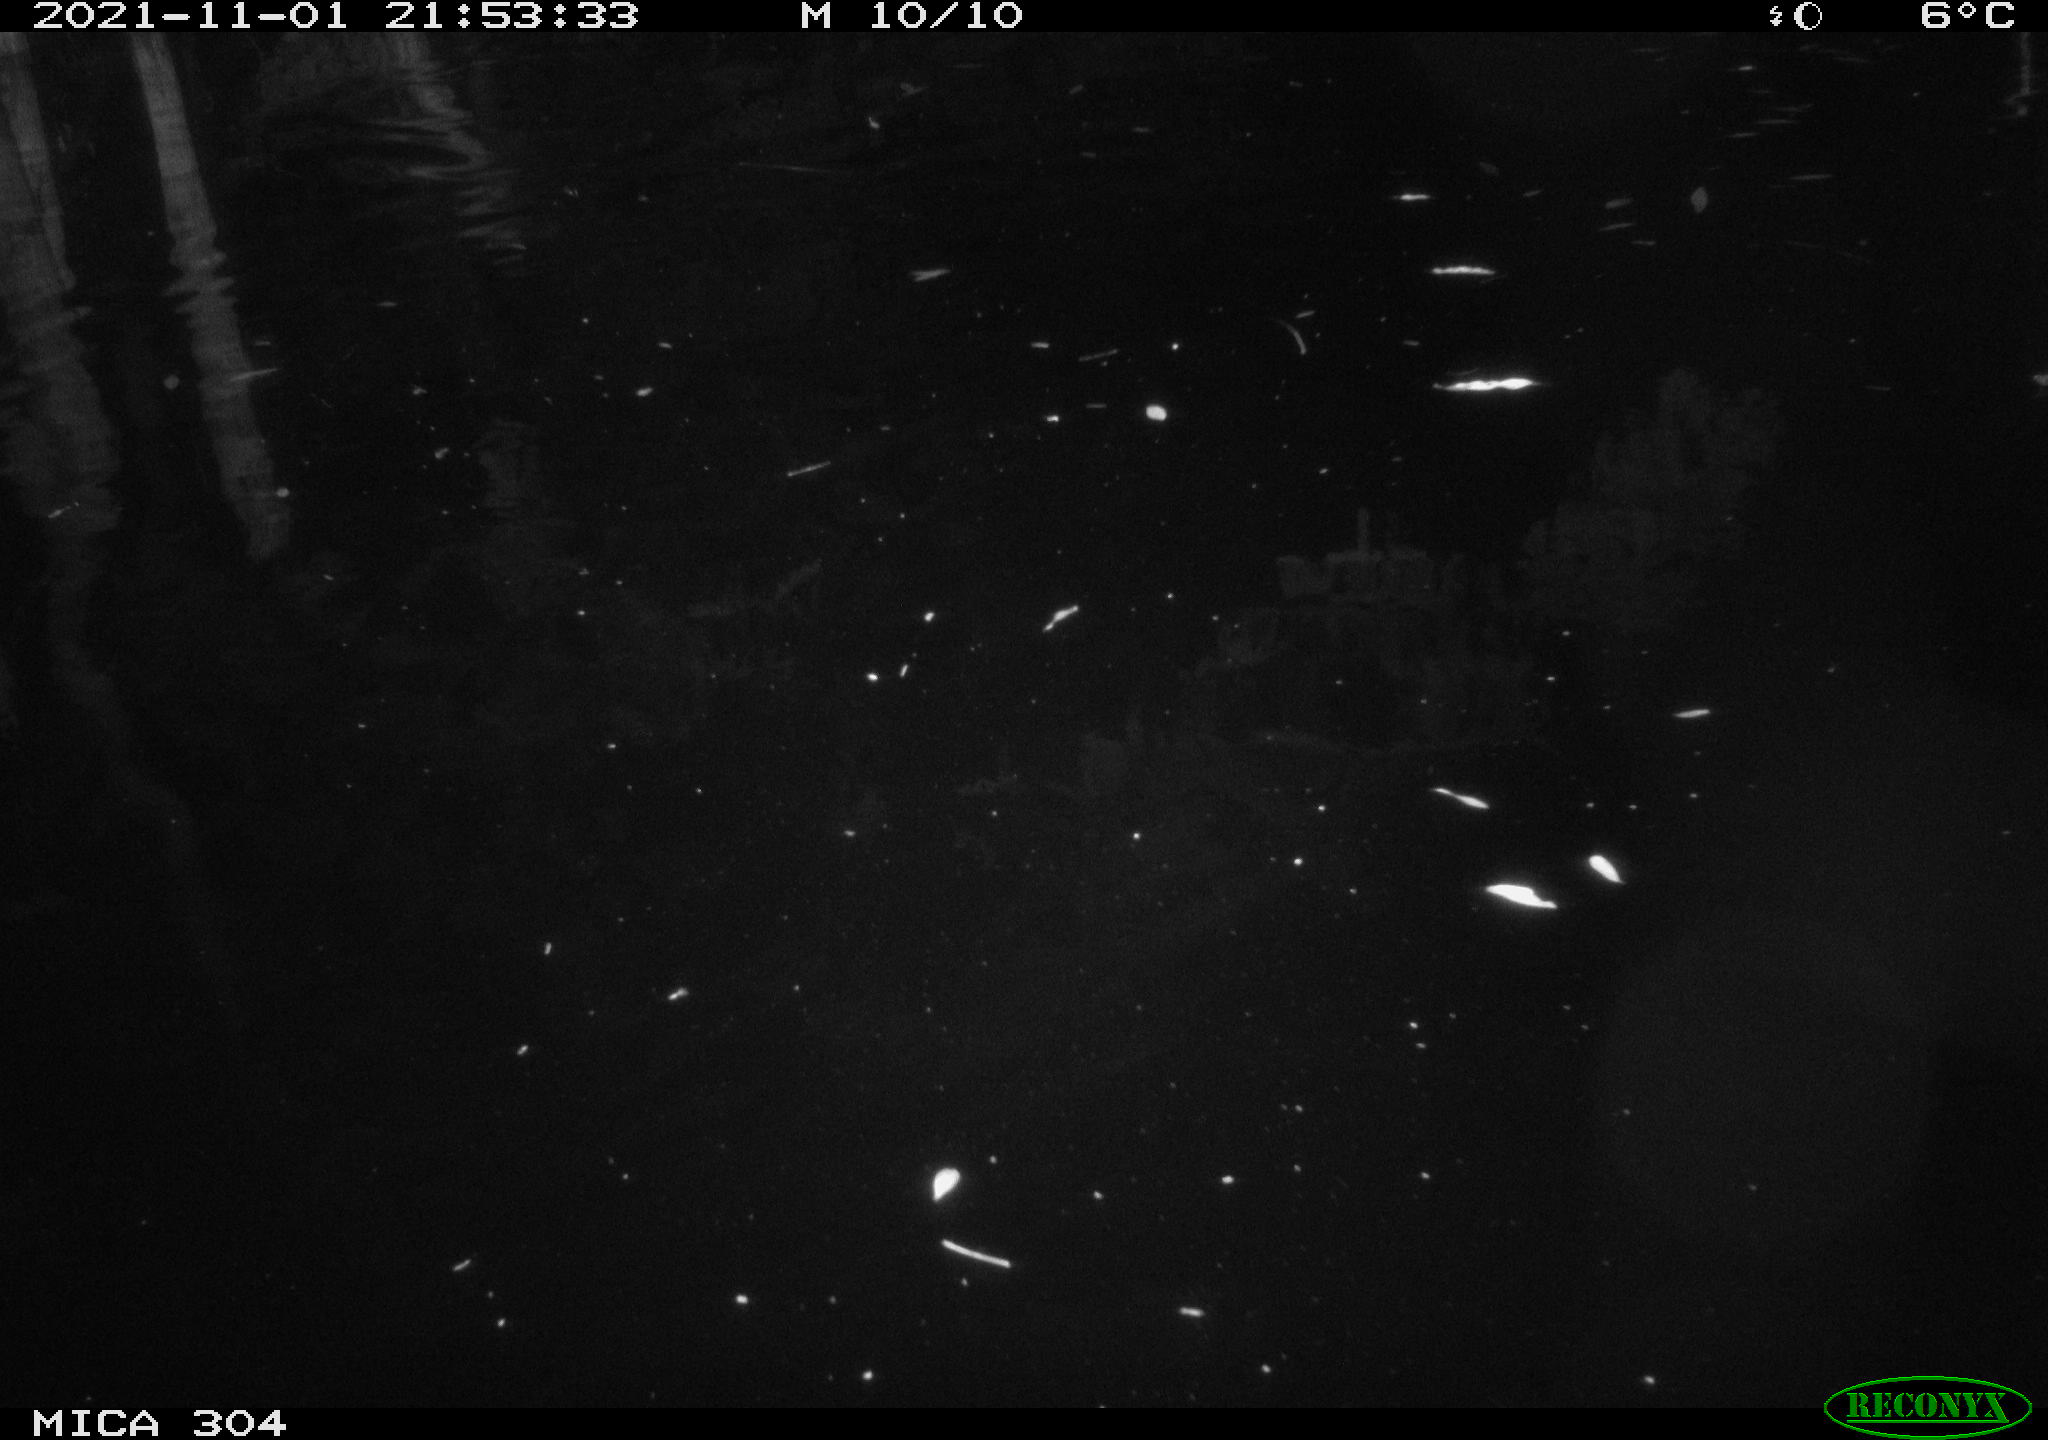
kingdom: Animalia
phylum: Chordata
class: Mammalia
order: Rodentia
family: Muridae
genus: Rattus
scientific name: Rattus norvegicus
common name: Brown rat
